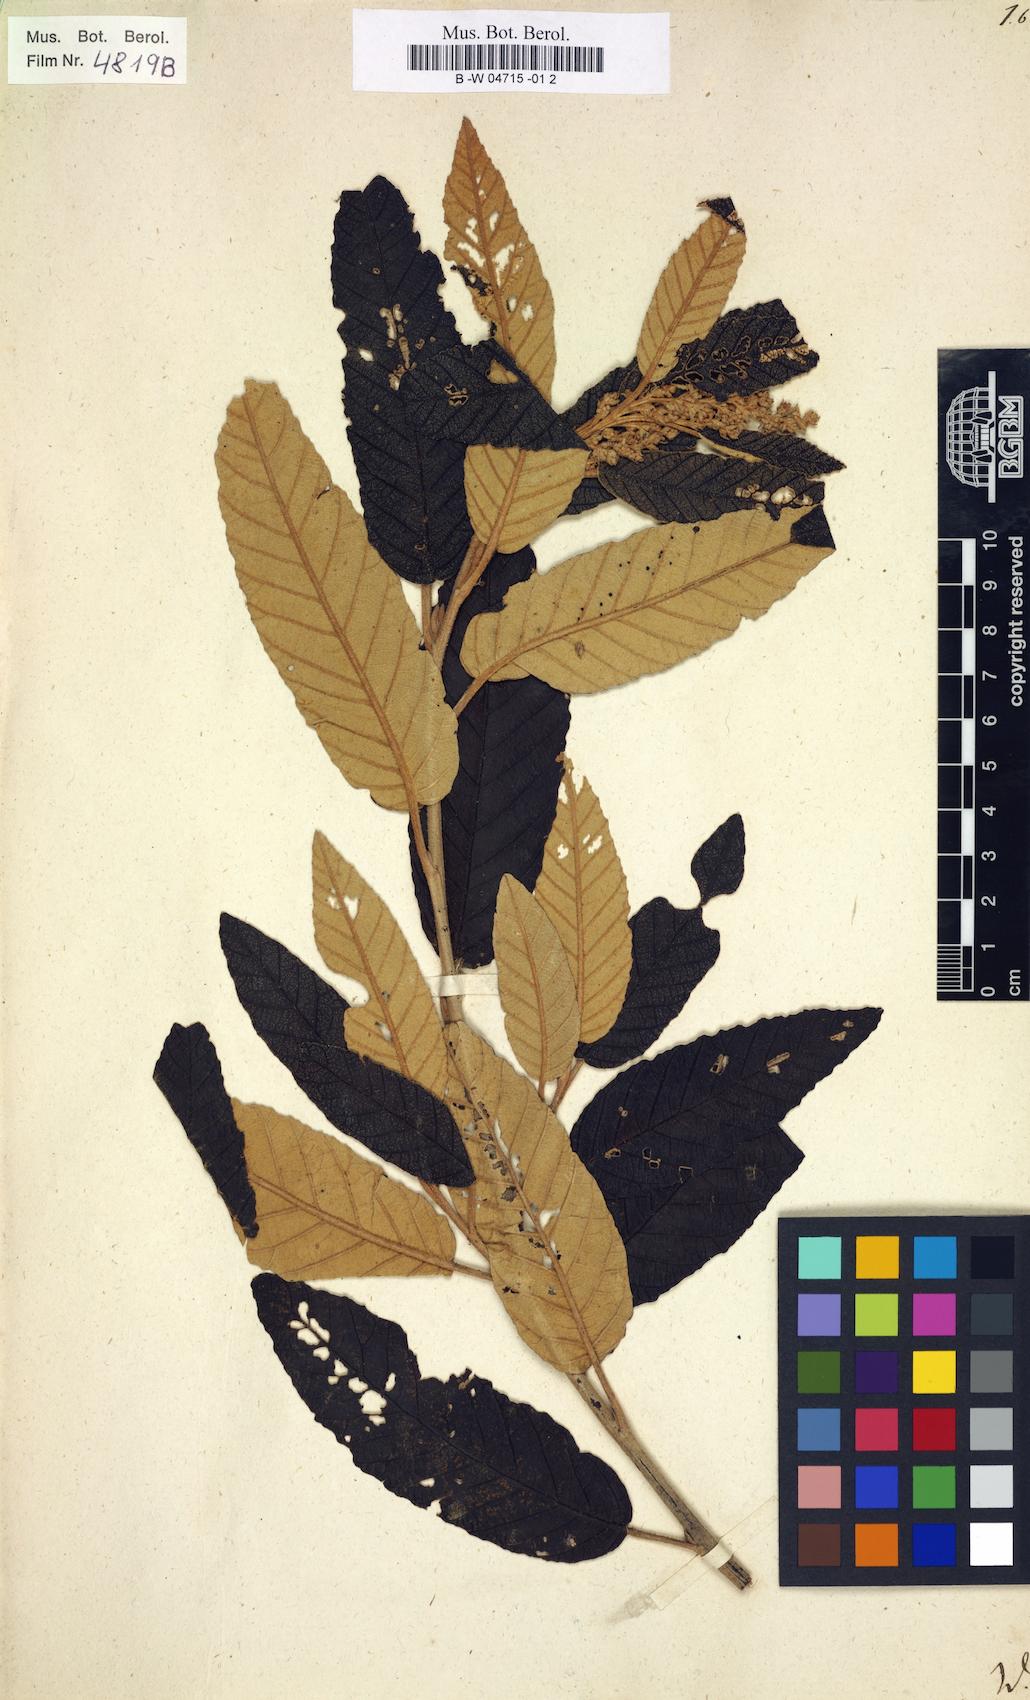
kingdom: Plantae
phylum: Tracheophyta
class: Magnoliopsida
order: Rosales
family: Rhamnaceae
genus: Pomaderris
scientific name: Pomaderris apetala
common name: Hazel pomaderris
